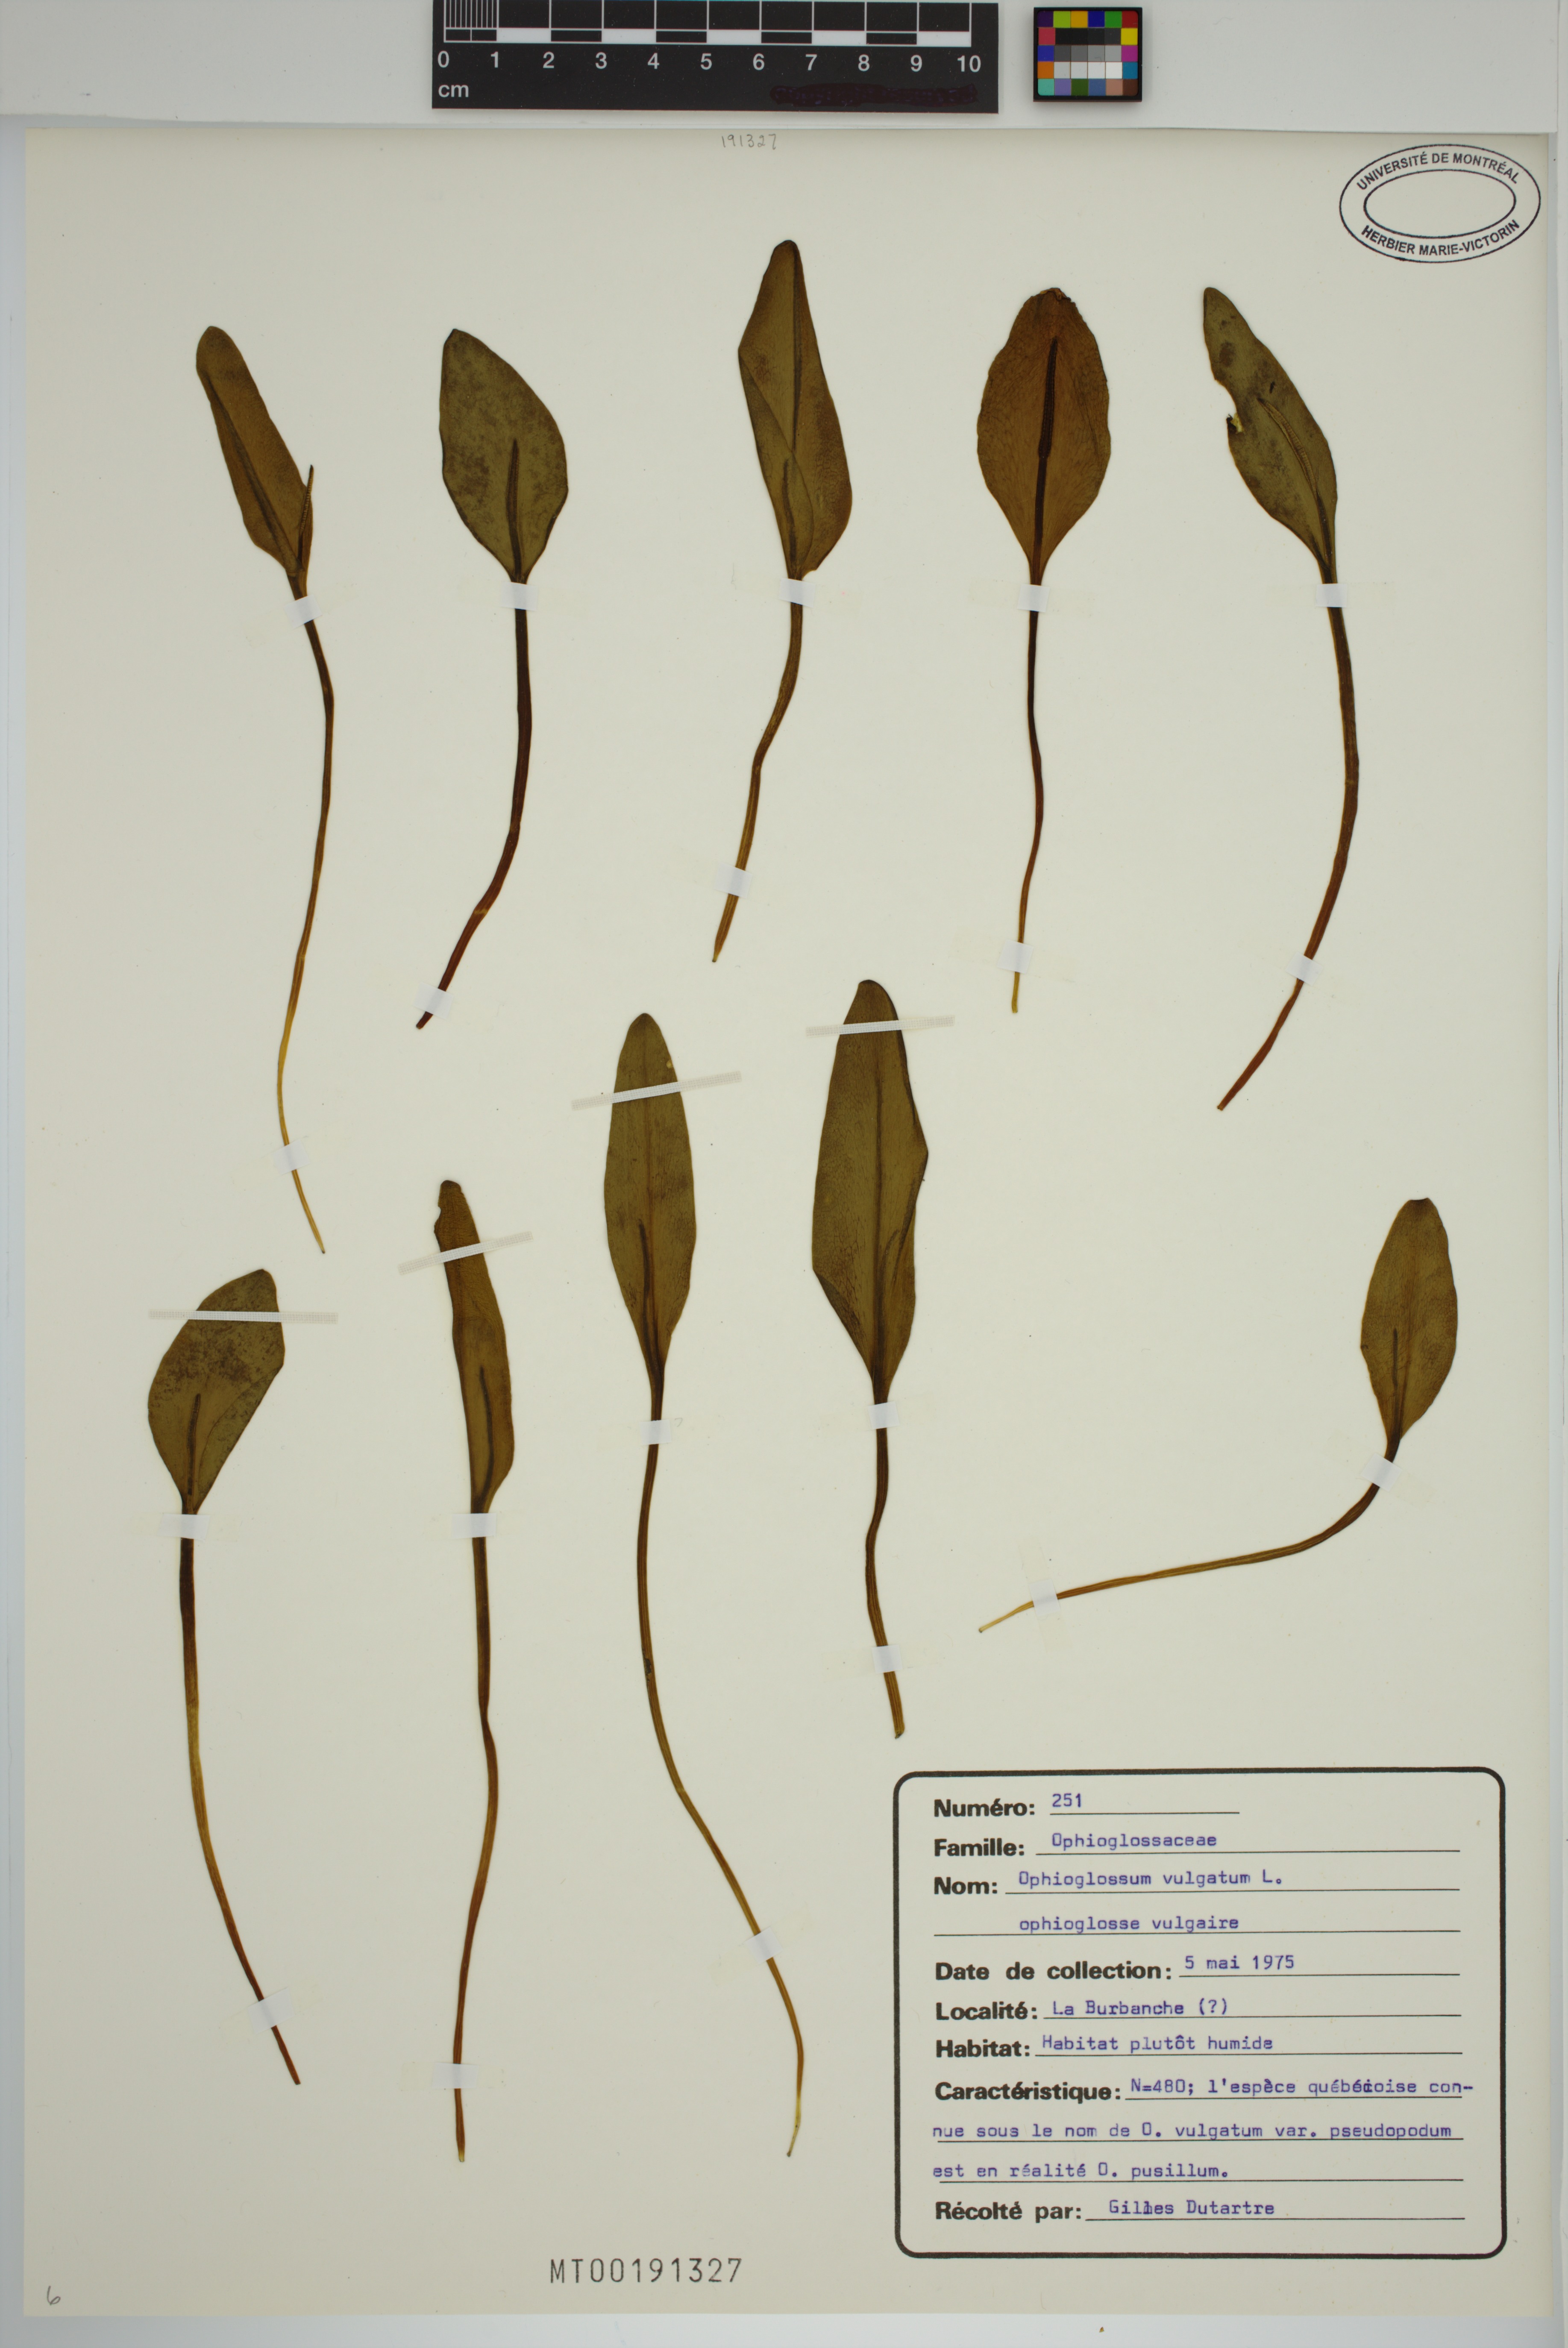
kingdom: Plantae
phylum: Tracheophyta
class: Polypodiopsida
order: Ophioglossales
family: Ophioglossaceae
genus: Ophioglossum
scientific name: Ophioglossum vulgatum
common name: Adder's-tongue
